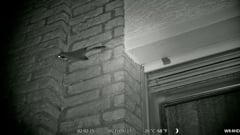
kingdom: Animalia
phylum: Chordata
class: Mammalia
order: Rodentia
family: Gliridae
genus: Eliomys
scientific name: Eliomys quercinus
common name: Garden dormouse
